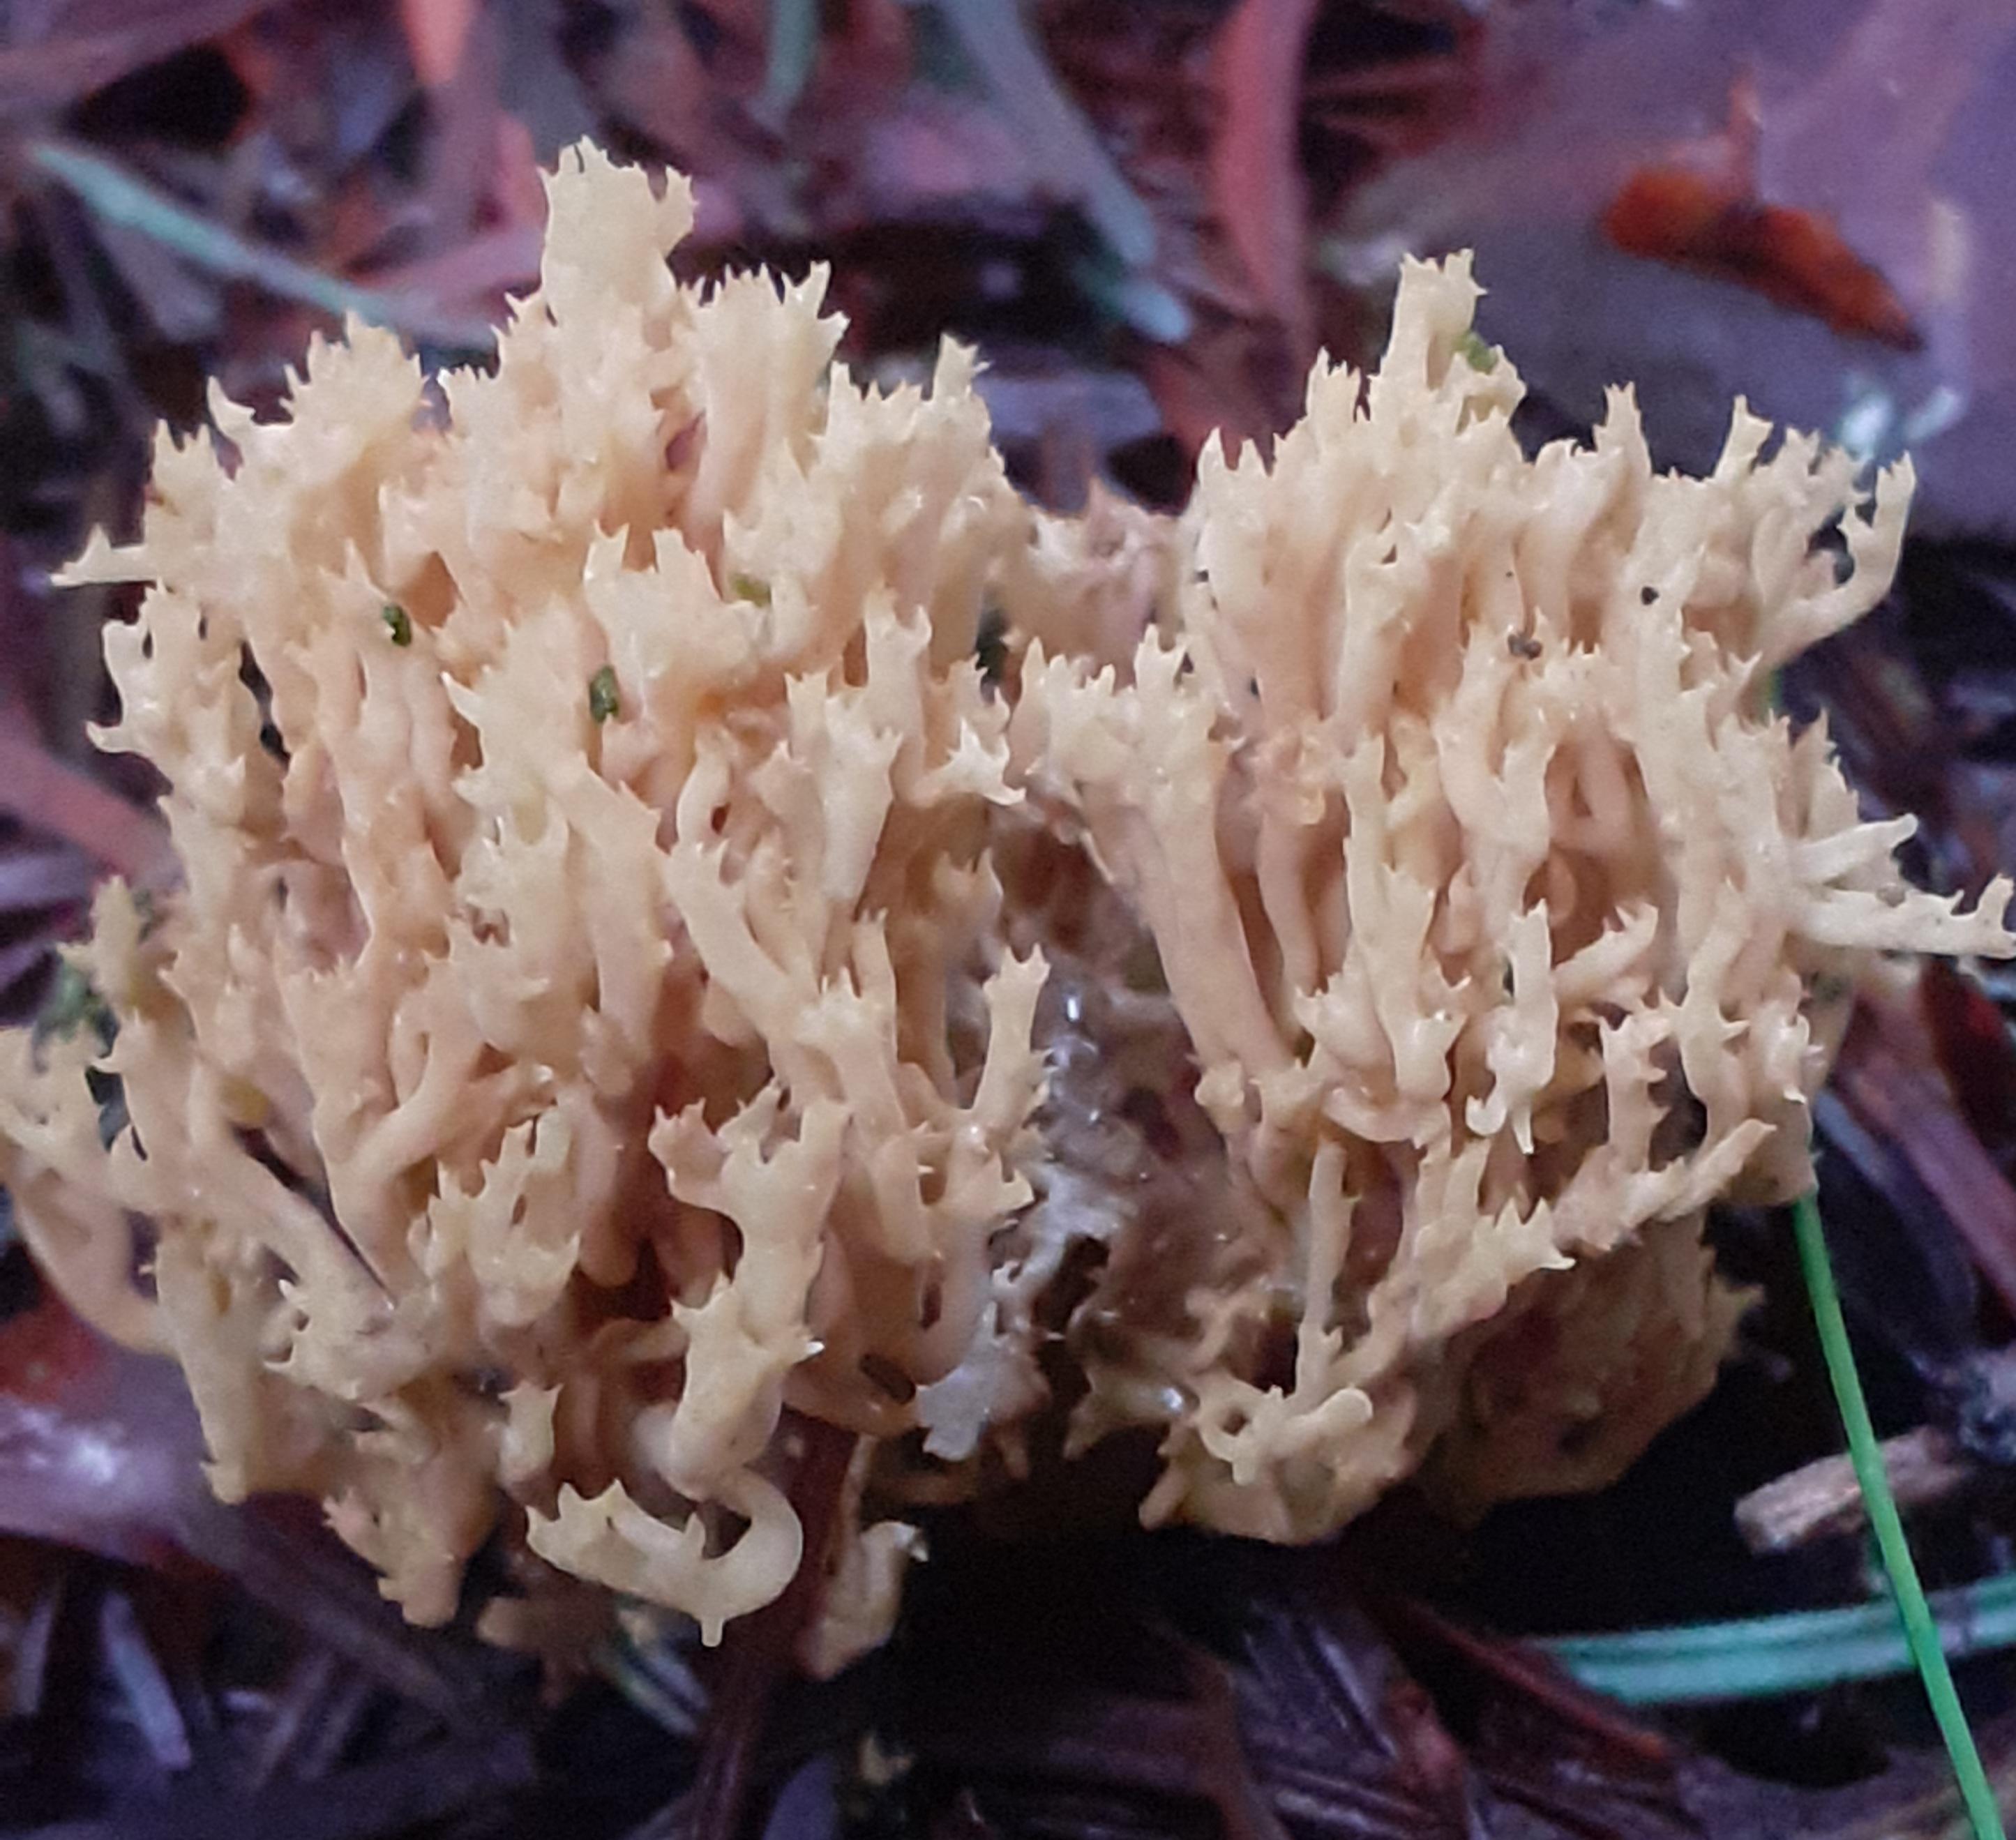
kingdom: Fungi
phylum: Basidiomycota
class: Agaricomycetes
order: Gomphales
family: Gomphaceae
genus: Phaeoclavulina
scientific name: Phaeoclavulina eumorpha
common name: gran-koralsvamp
